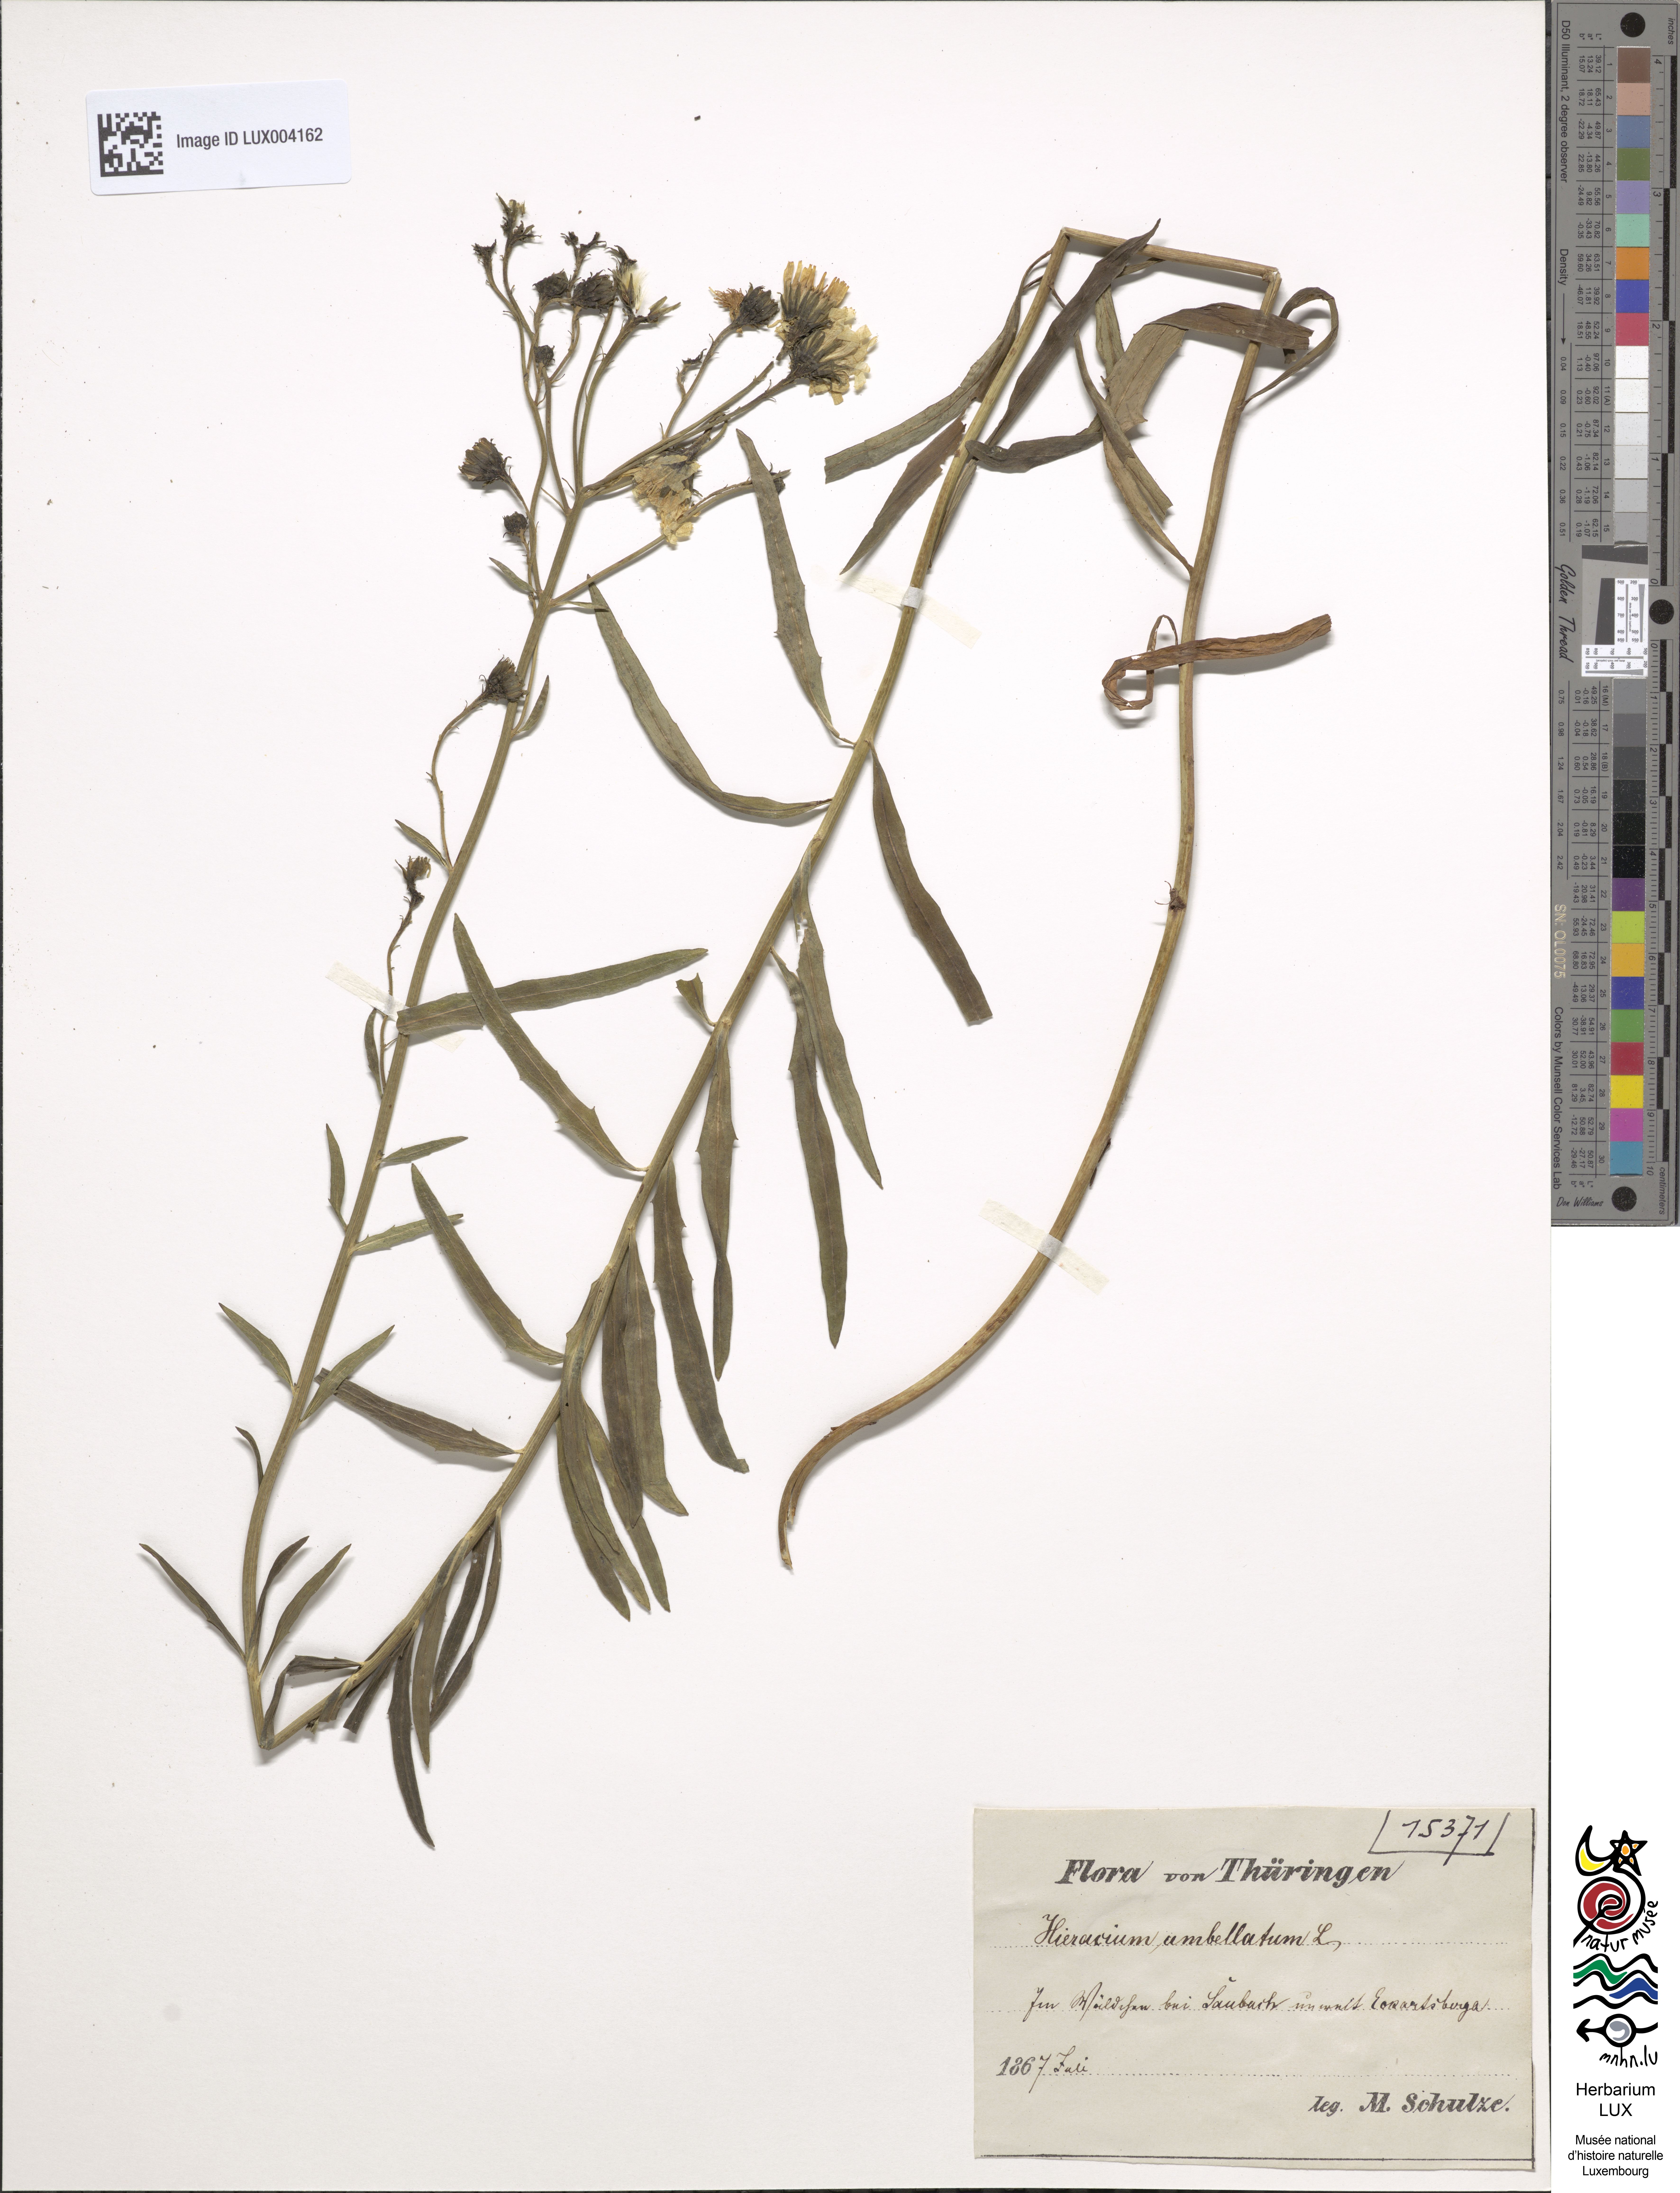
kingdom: Plantae
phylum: Tracheophyta
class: Magnoliopsida
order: Asterales
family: Asteraceae
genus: Hieracium
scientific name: Hieracium umbellatum
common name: Northern hawkweed
